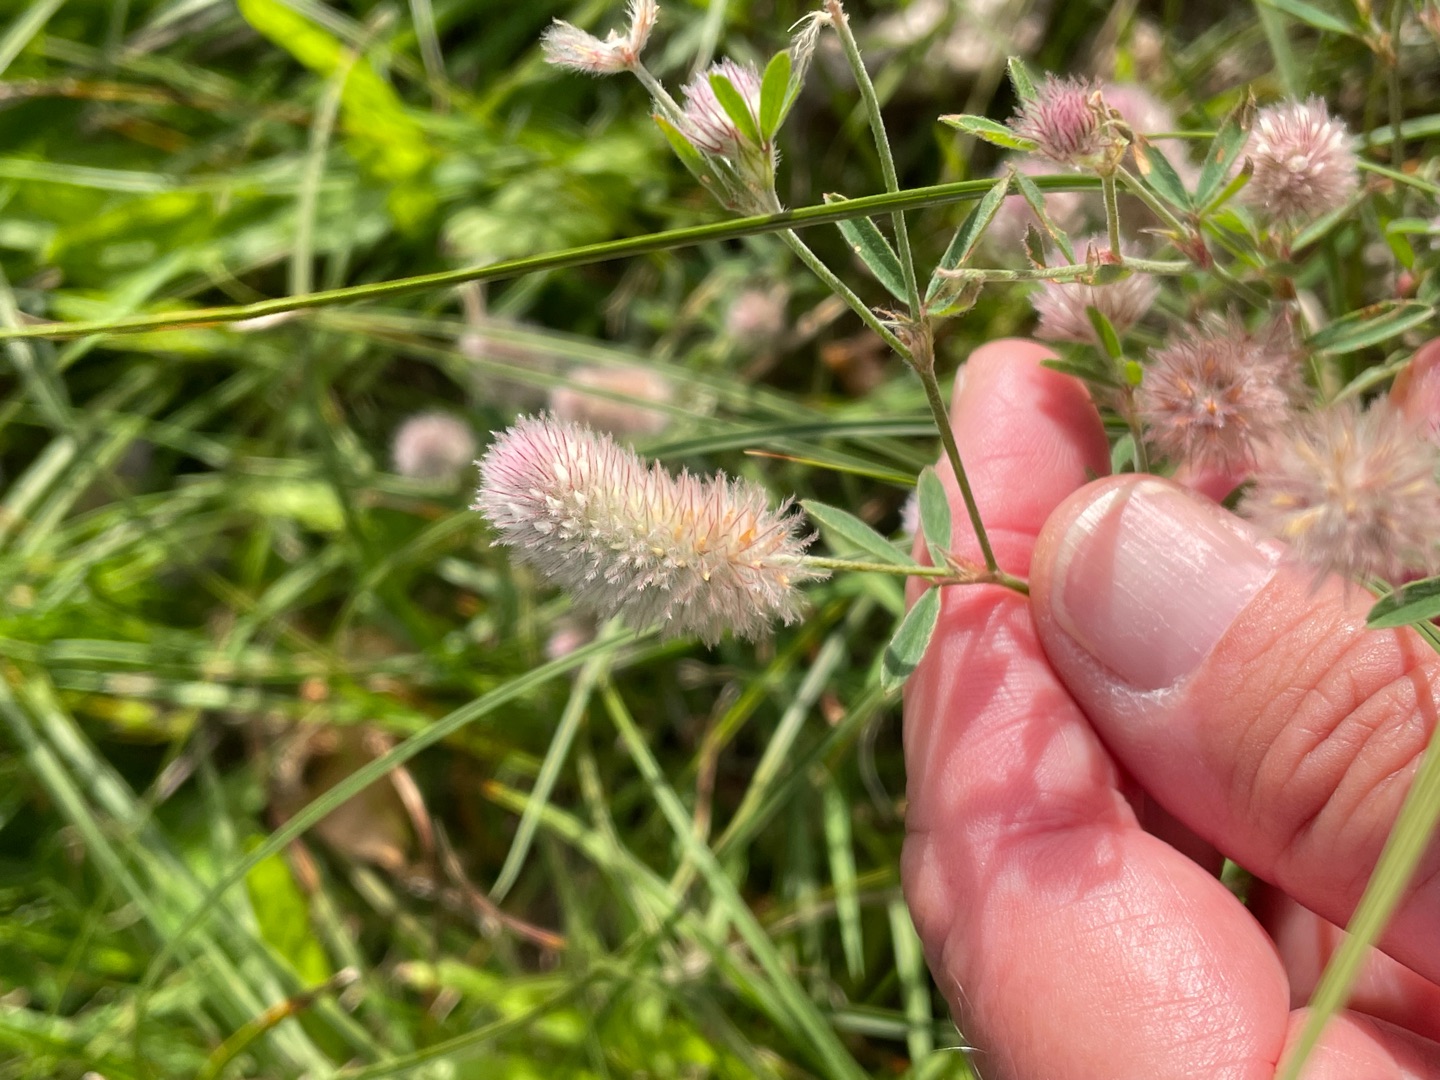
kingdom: Plantae
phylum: Tracheophyta
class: Magnoliopsida
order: Fabales
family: Fabaceae
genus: Trifolium
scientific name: Trifolium arvense
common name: Hare-kløver
